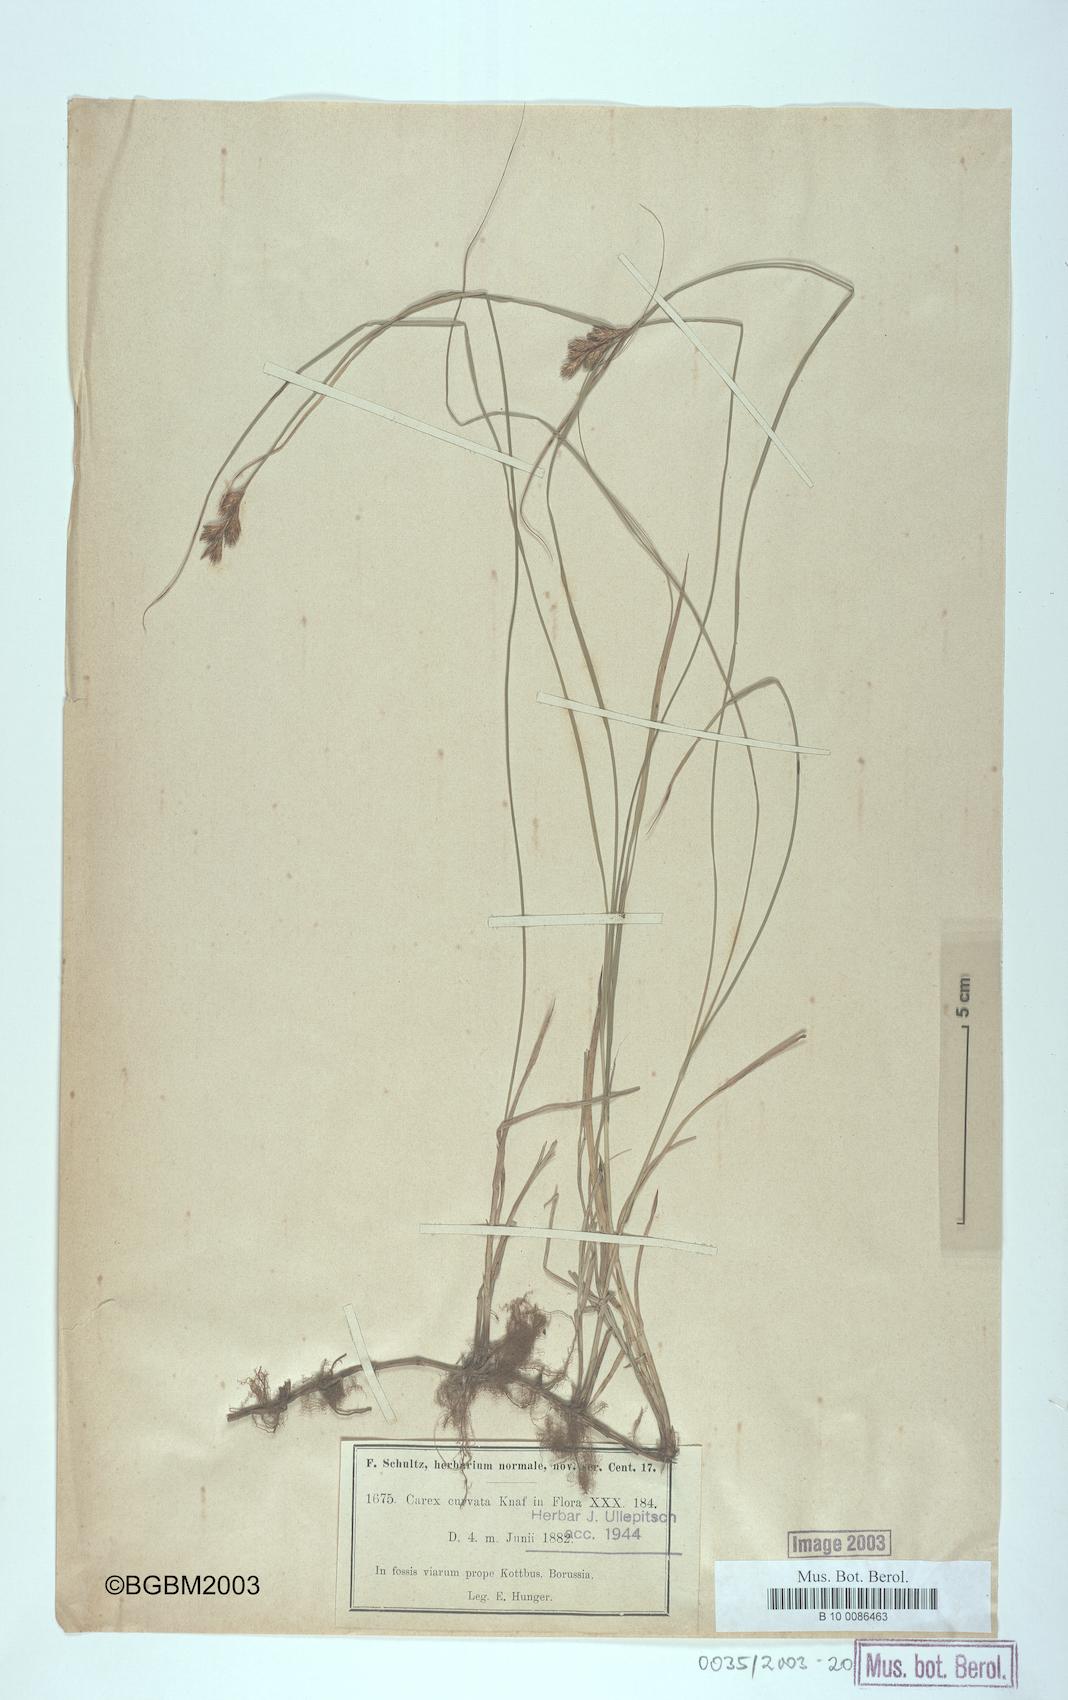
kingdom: Plantae
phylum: Tracheophyta
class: Liliopsida
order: Poales
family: Cyperaceae
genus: Carex
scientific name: Carex curvata
